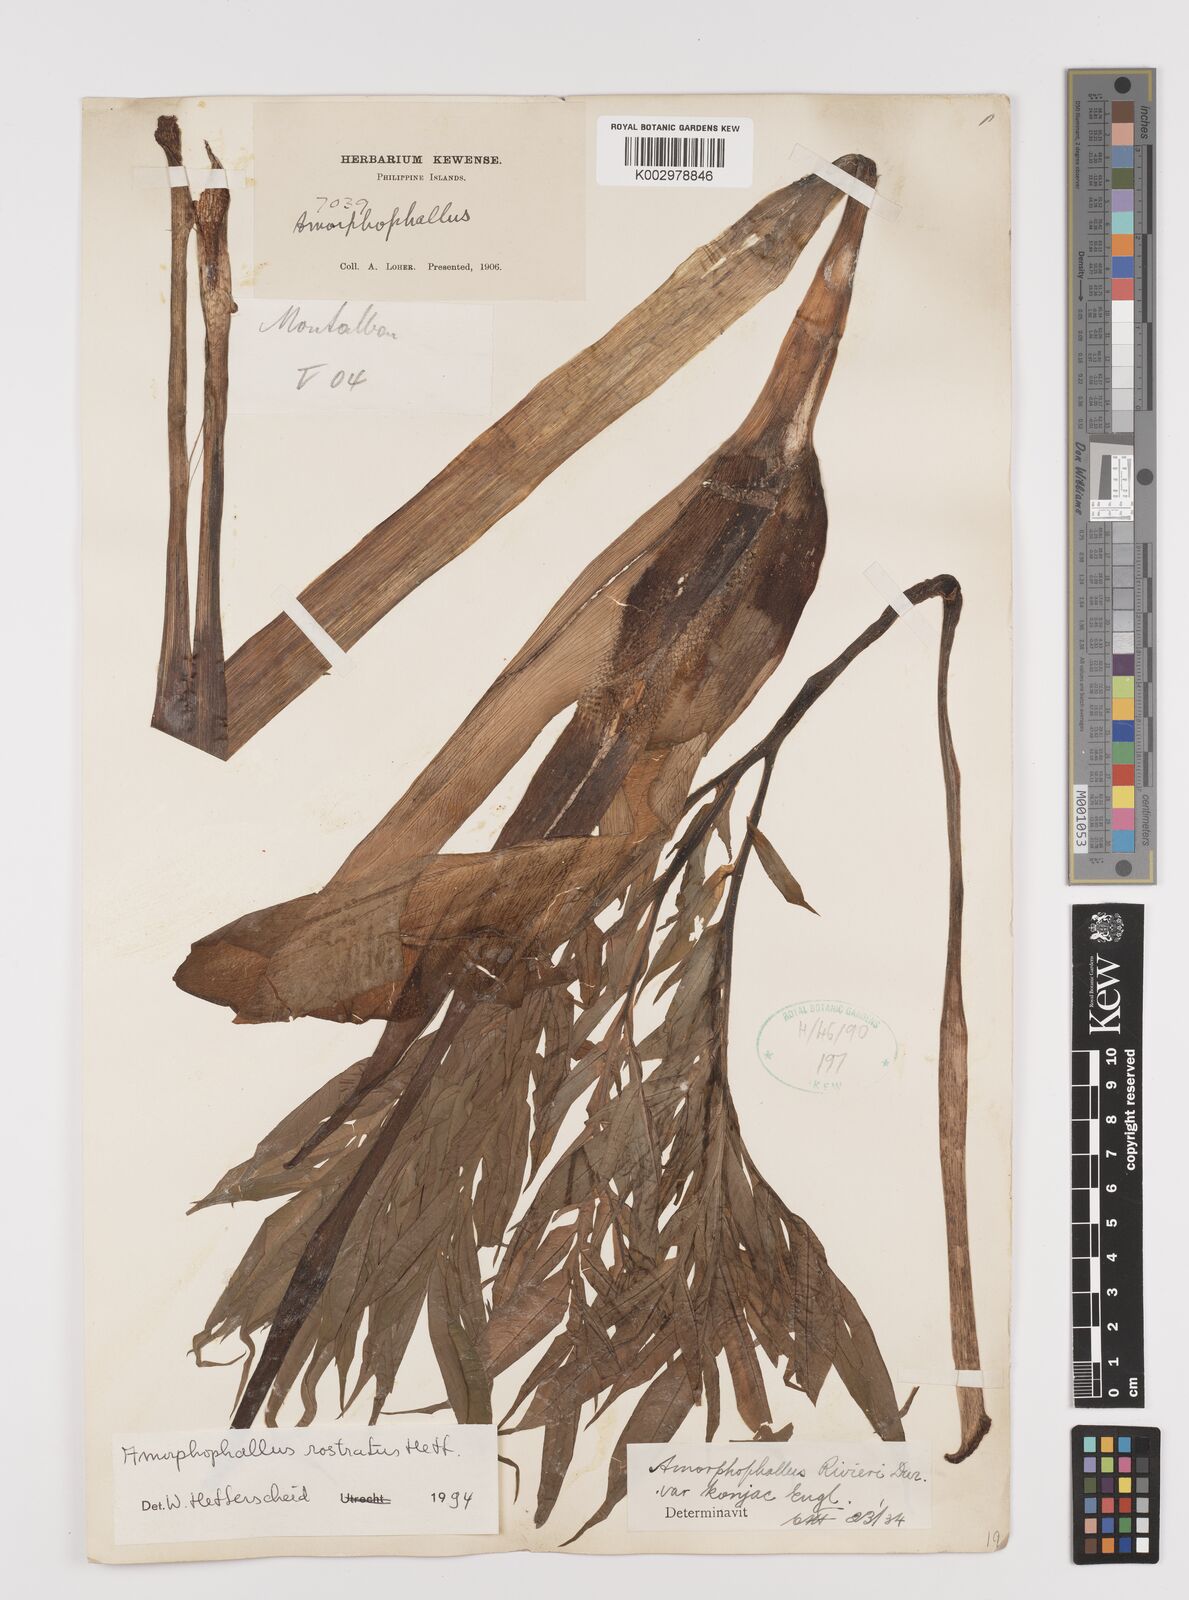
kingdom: Plantae
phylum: Tracheophyta
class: Liliopsida
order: Alismatales
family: Araceae
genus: Amorphophallus
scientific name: Amorphophallus rostratus
